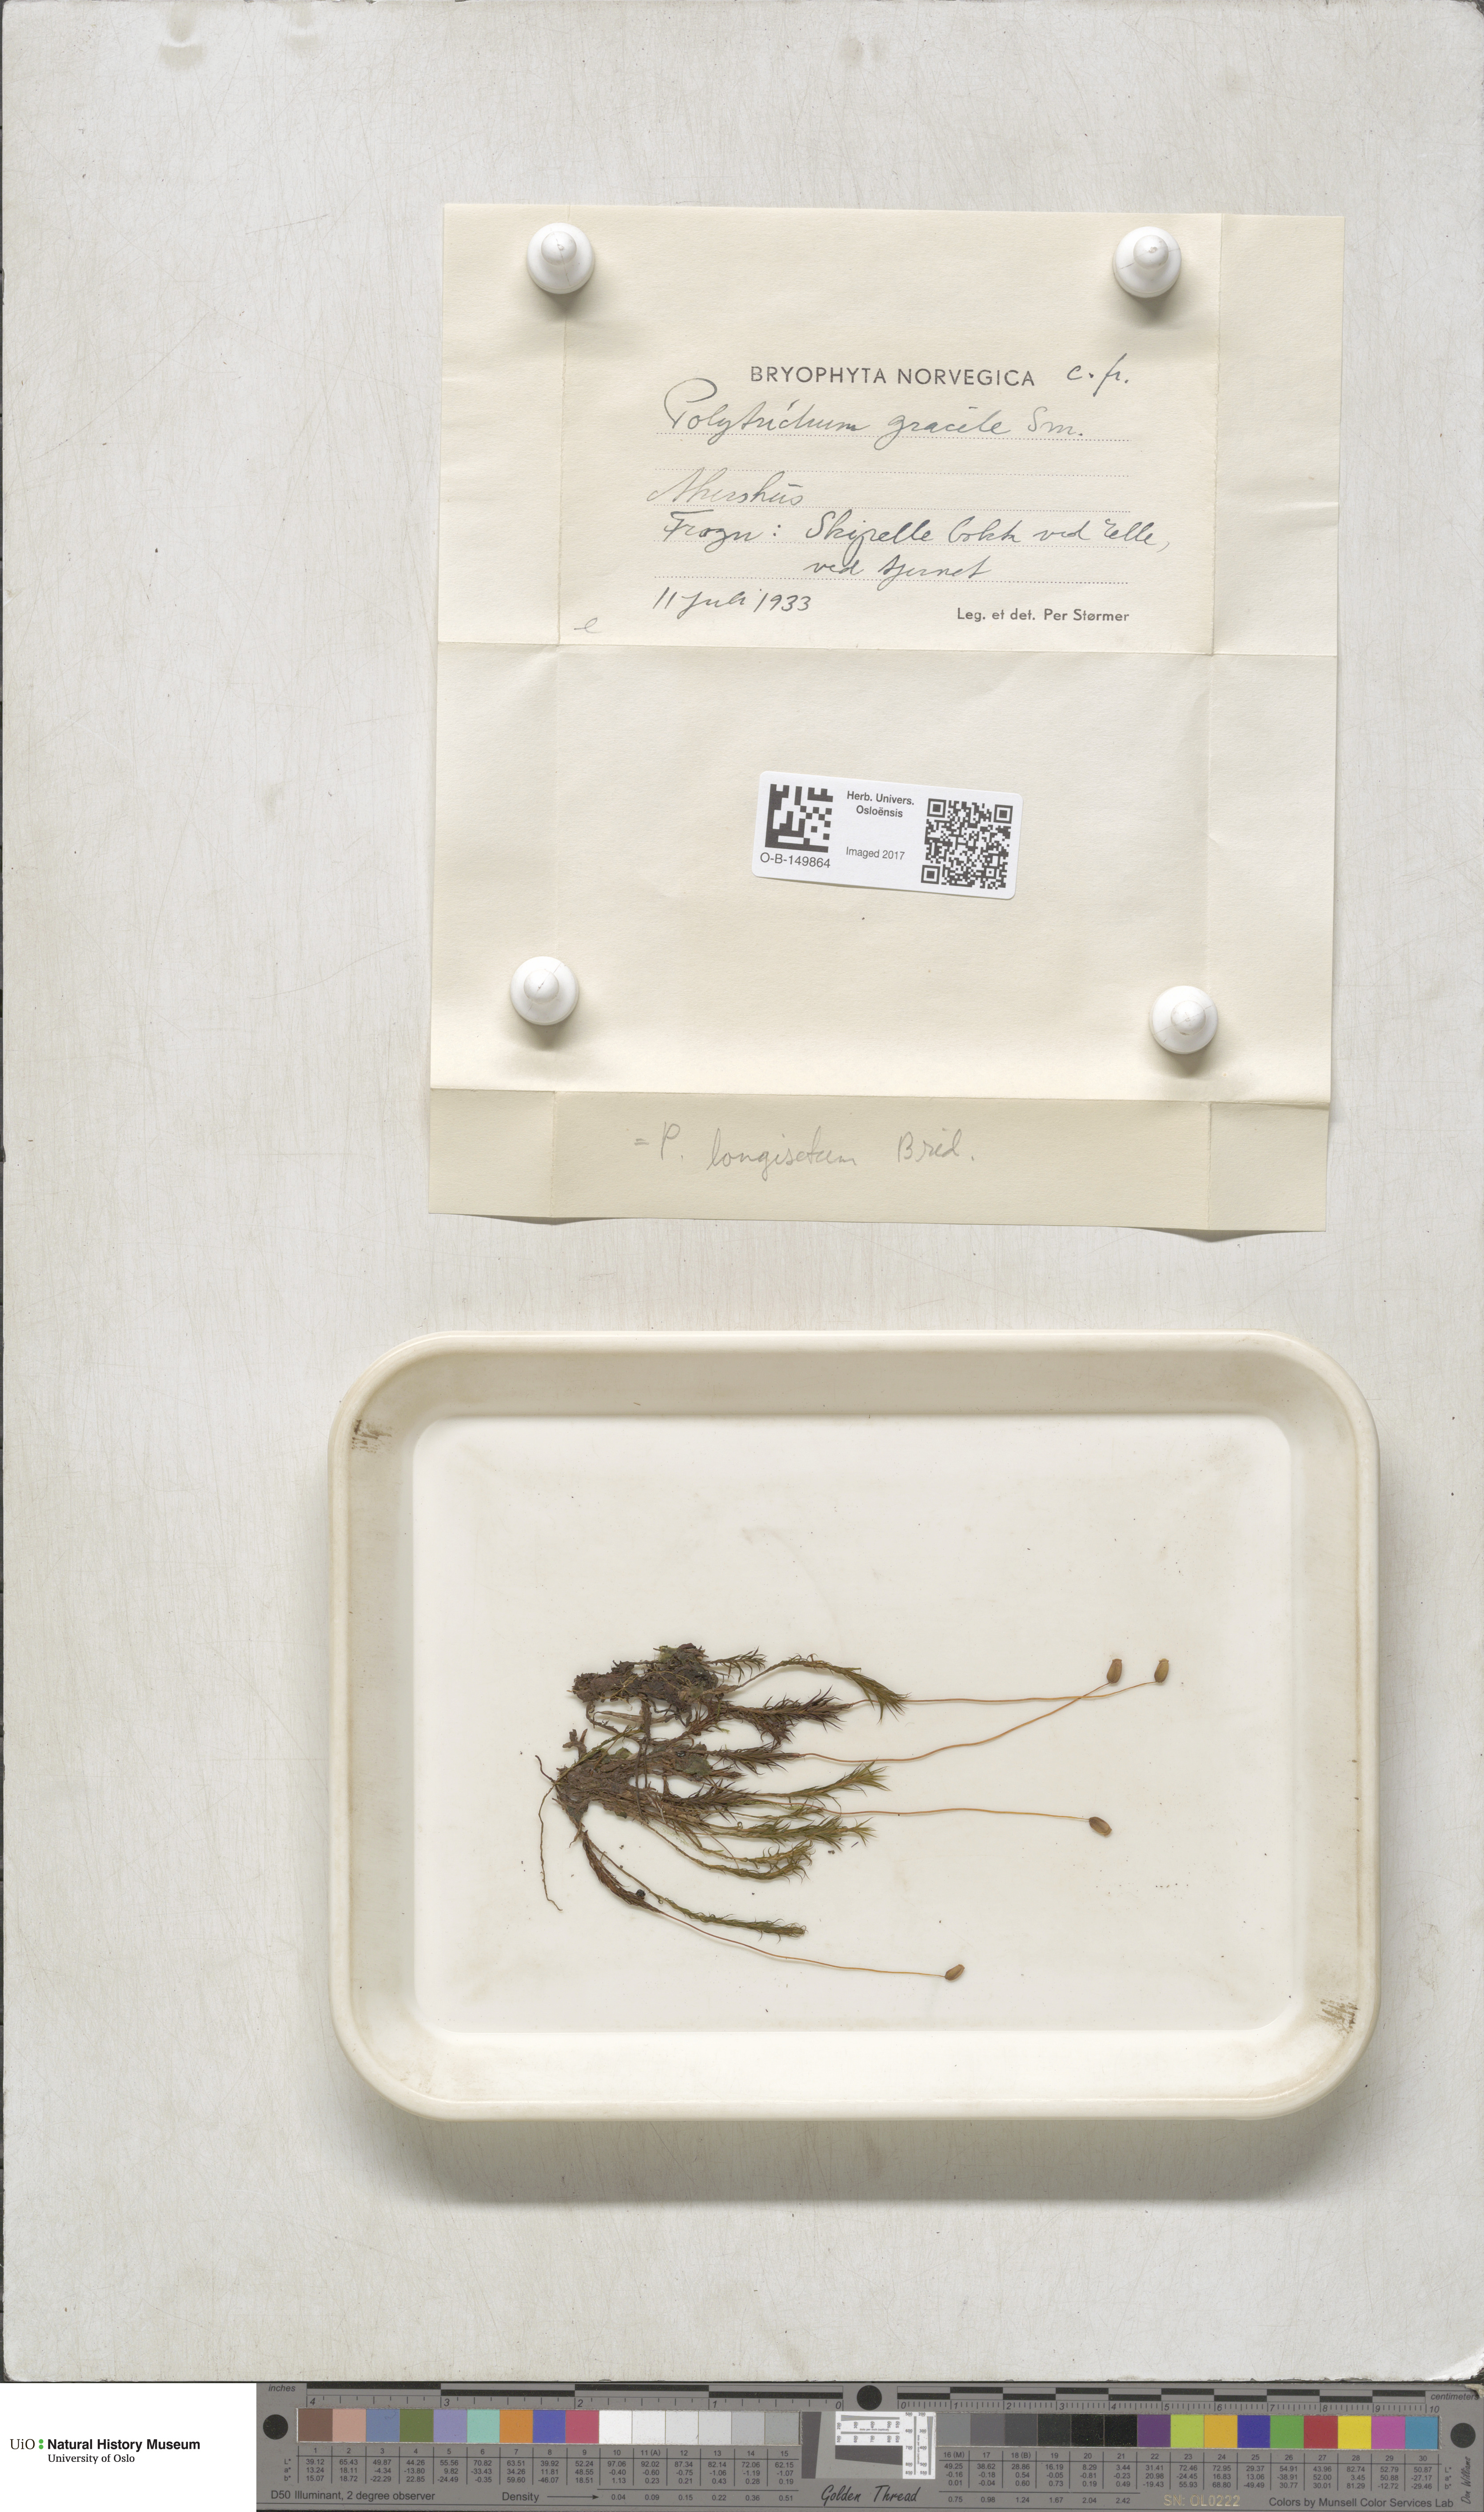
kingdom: Plantae
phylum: Bryophyta
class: Polytrichopsida
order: Polytrichales
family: Polytrichaceae
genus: Polytrichum
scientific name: Polytrichum longisetum
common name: Long-stalked haircap moss
